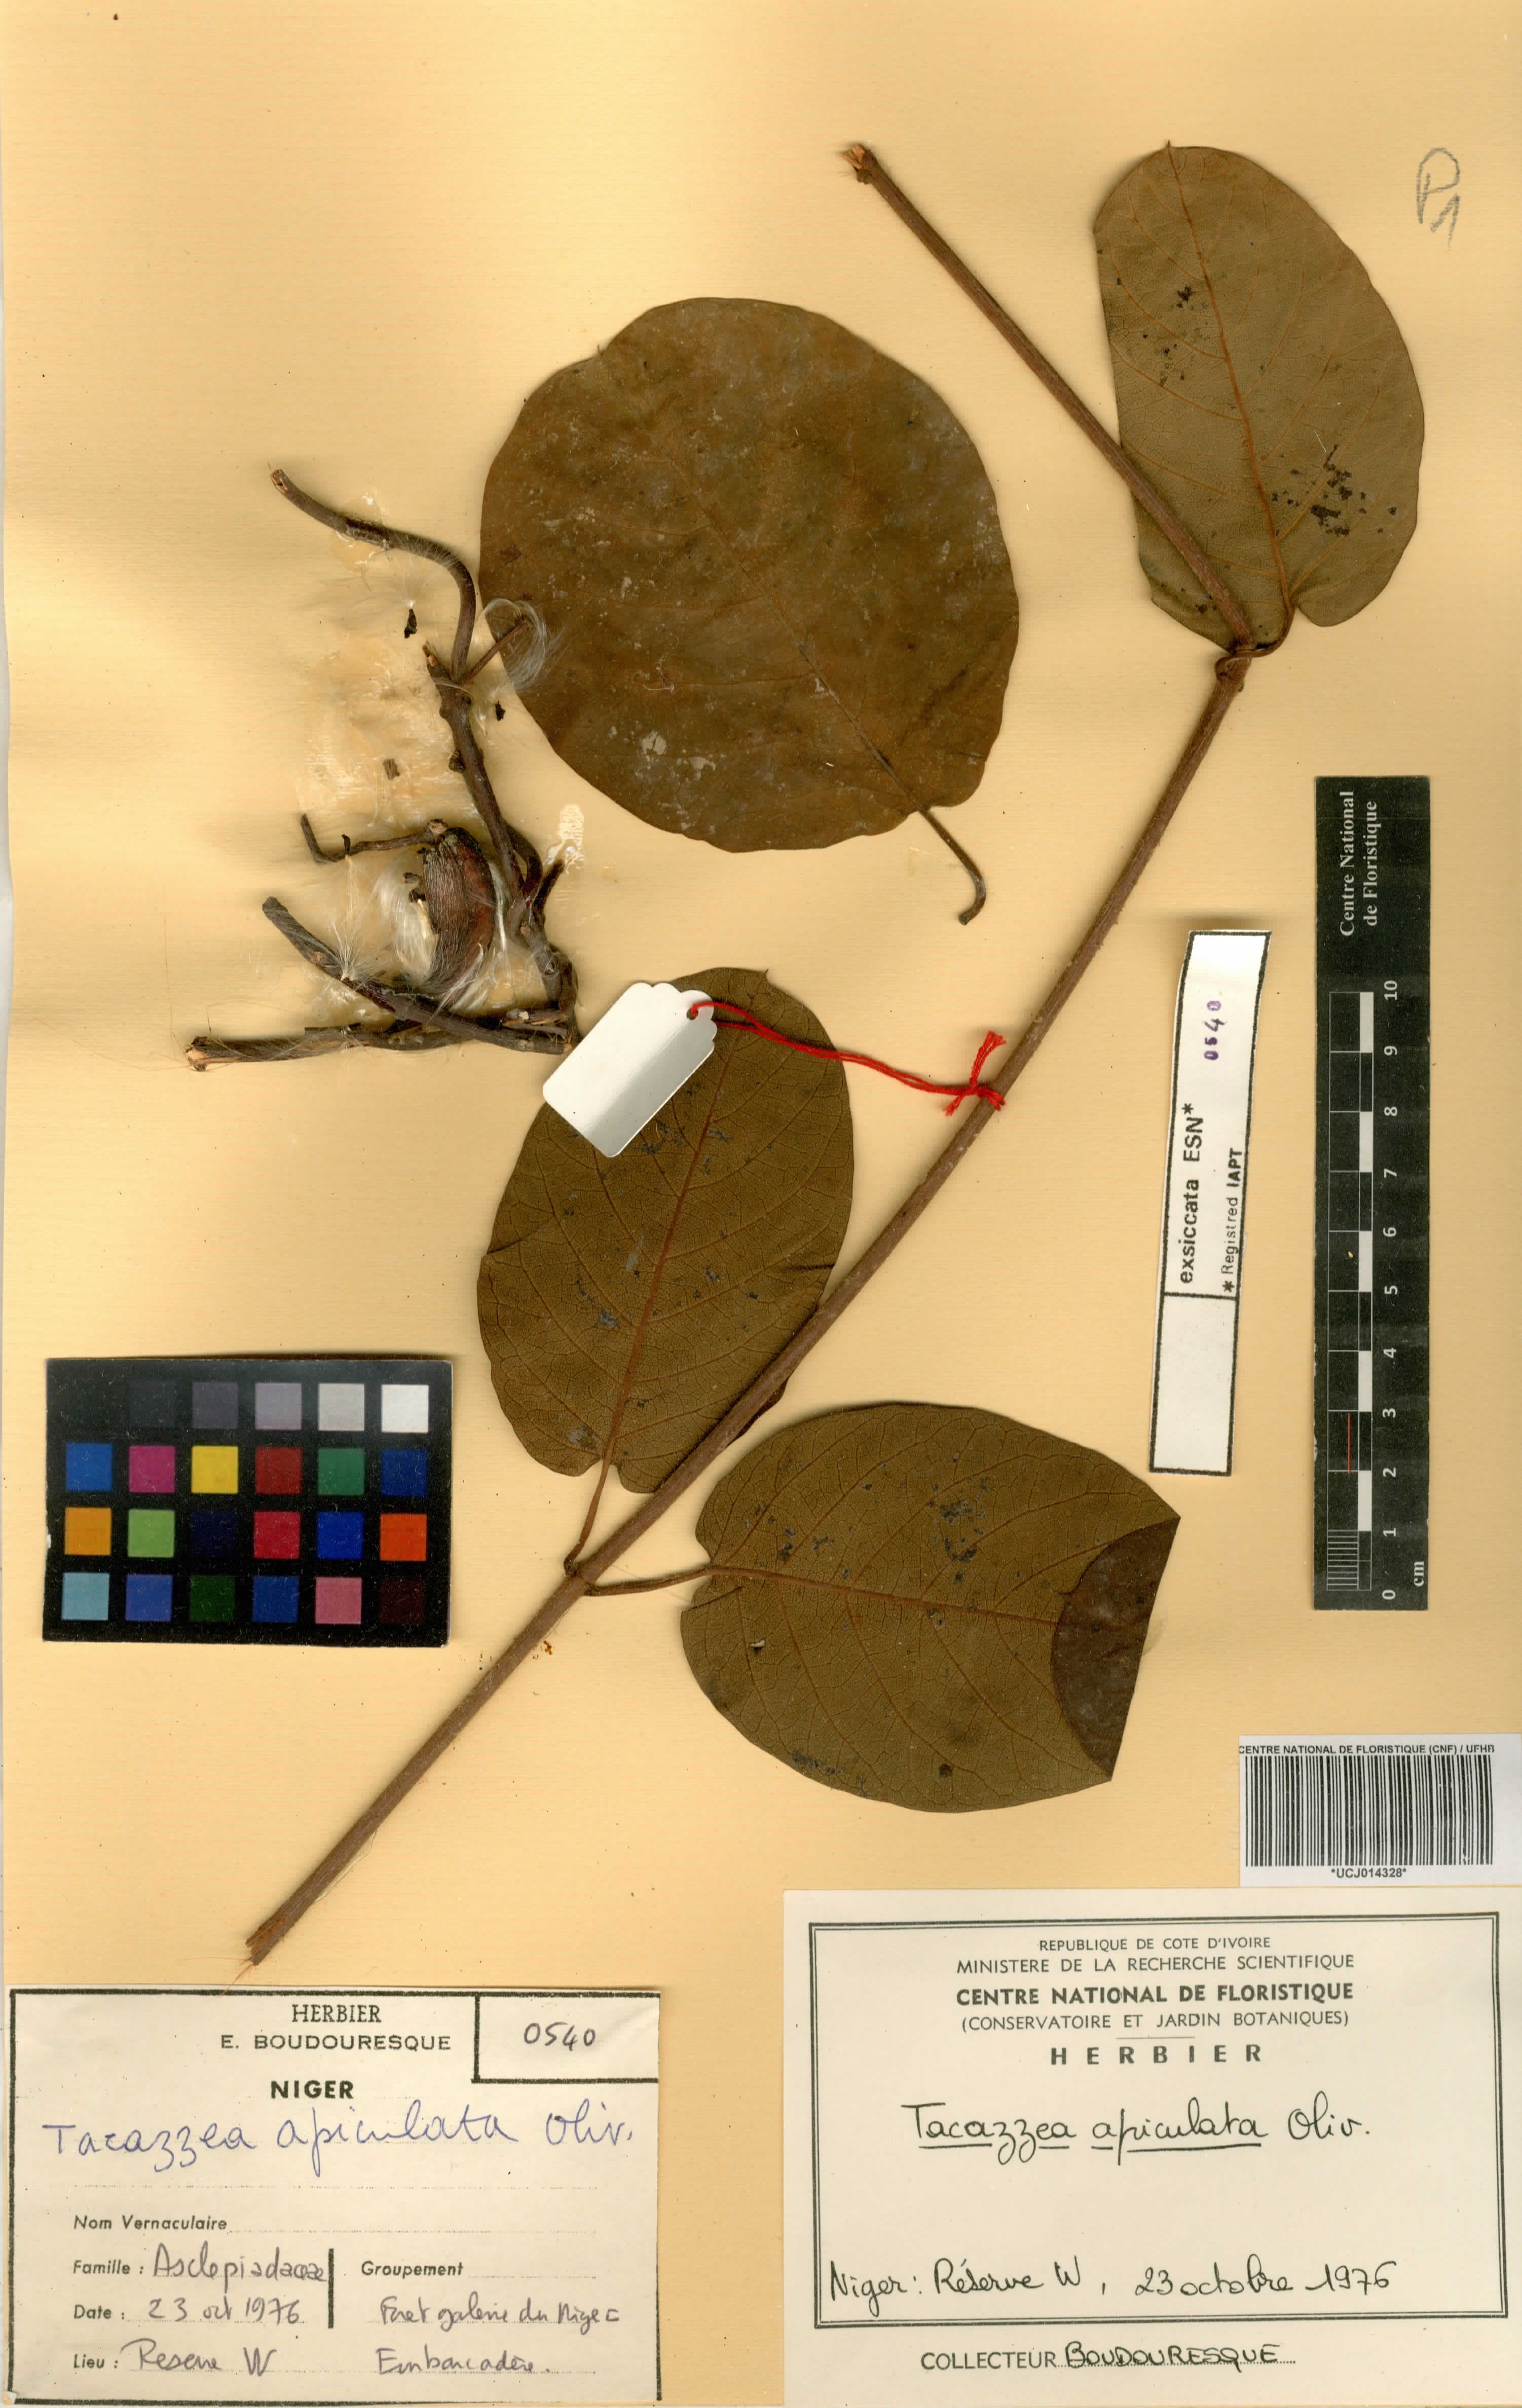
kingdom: Plantae
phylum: Tracheophyta
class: Magnoliopsida
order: Gentianales
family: Apocynaceae
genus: Tacazzea
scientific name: Tacazzea apiculata
